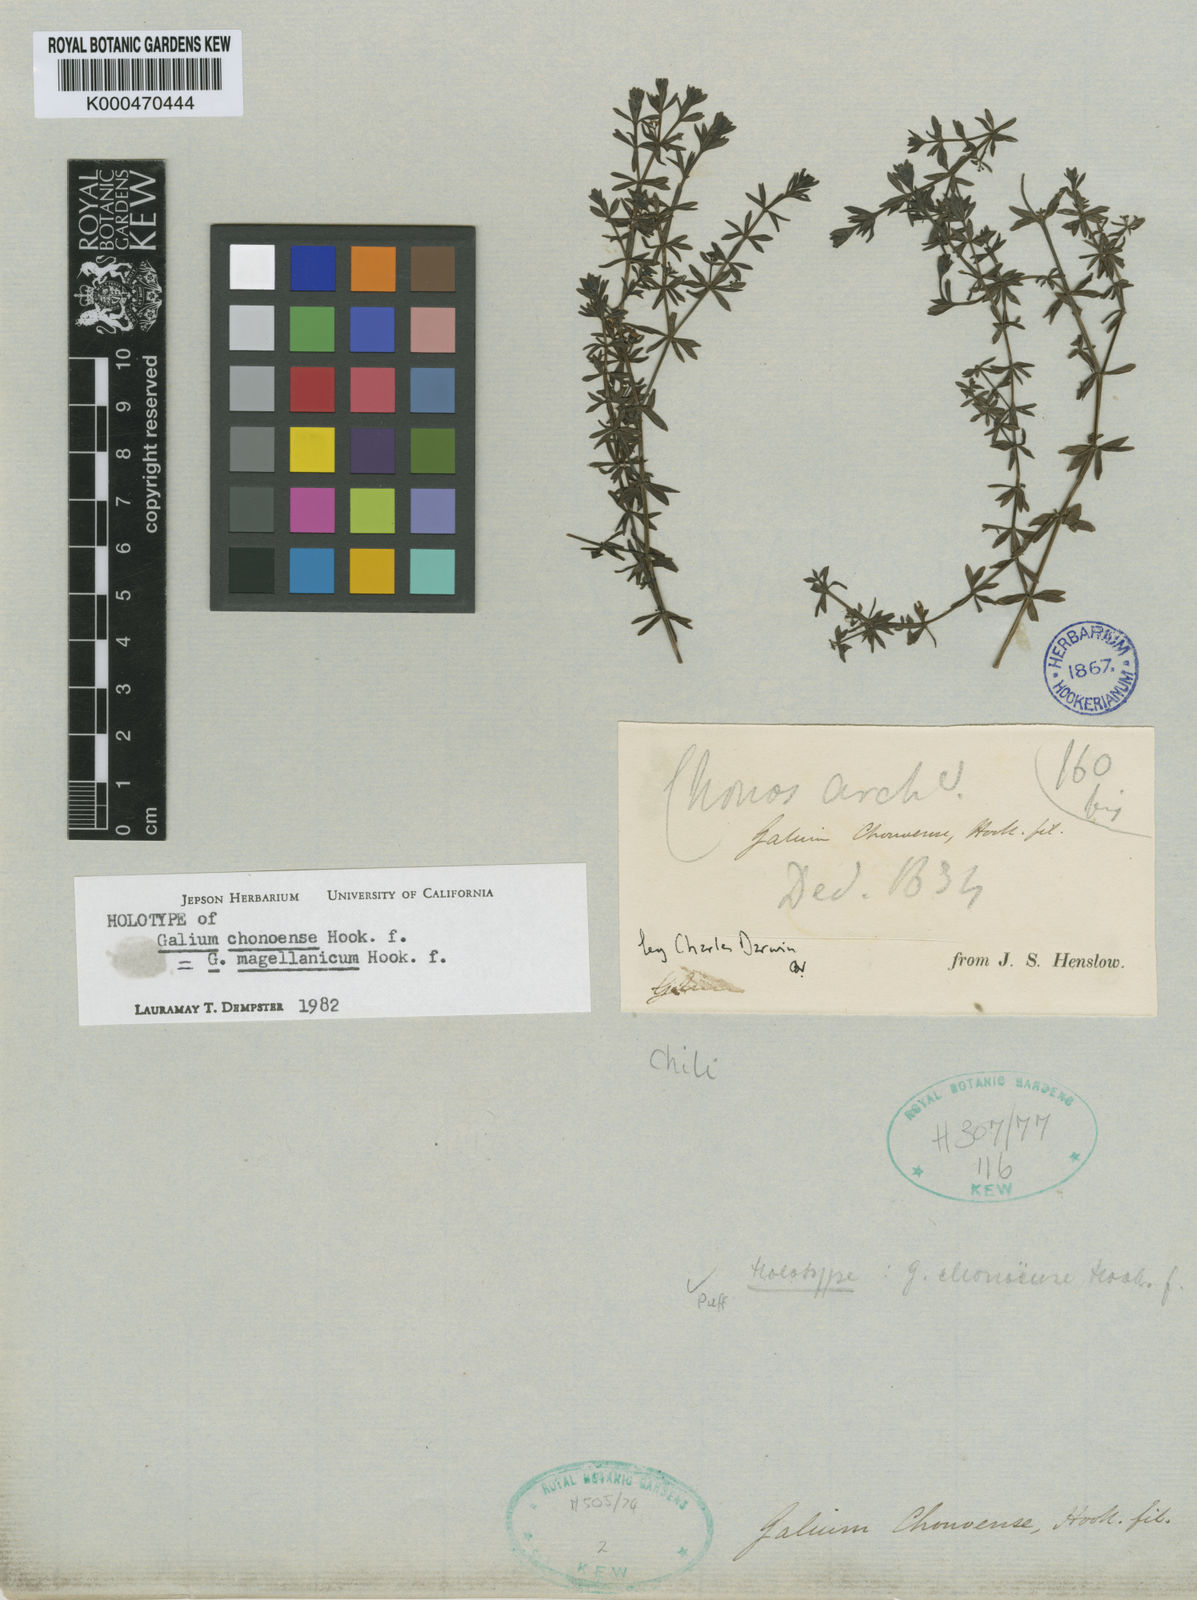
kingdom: Plantae
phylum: Tracheophyta
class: Magnoliopsida
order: Gentianales
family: Rubiaceae
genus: Galium
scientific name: Galium magellanicum
